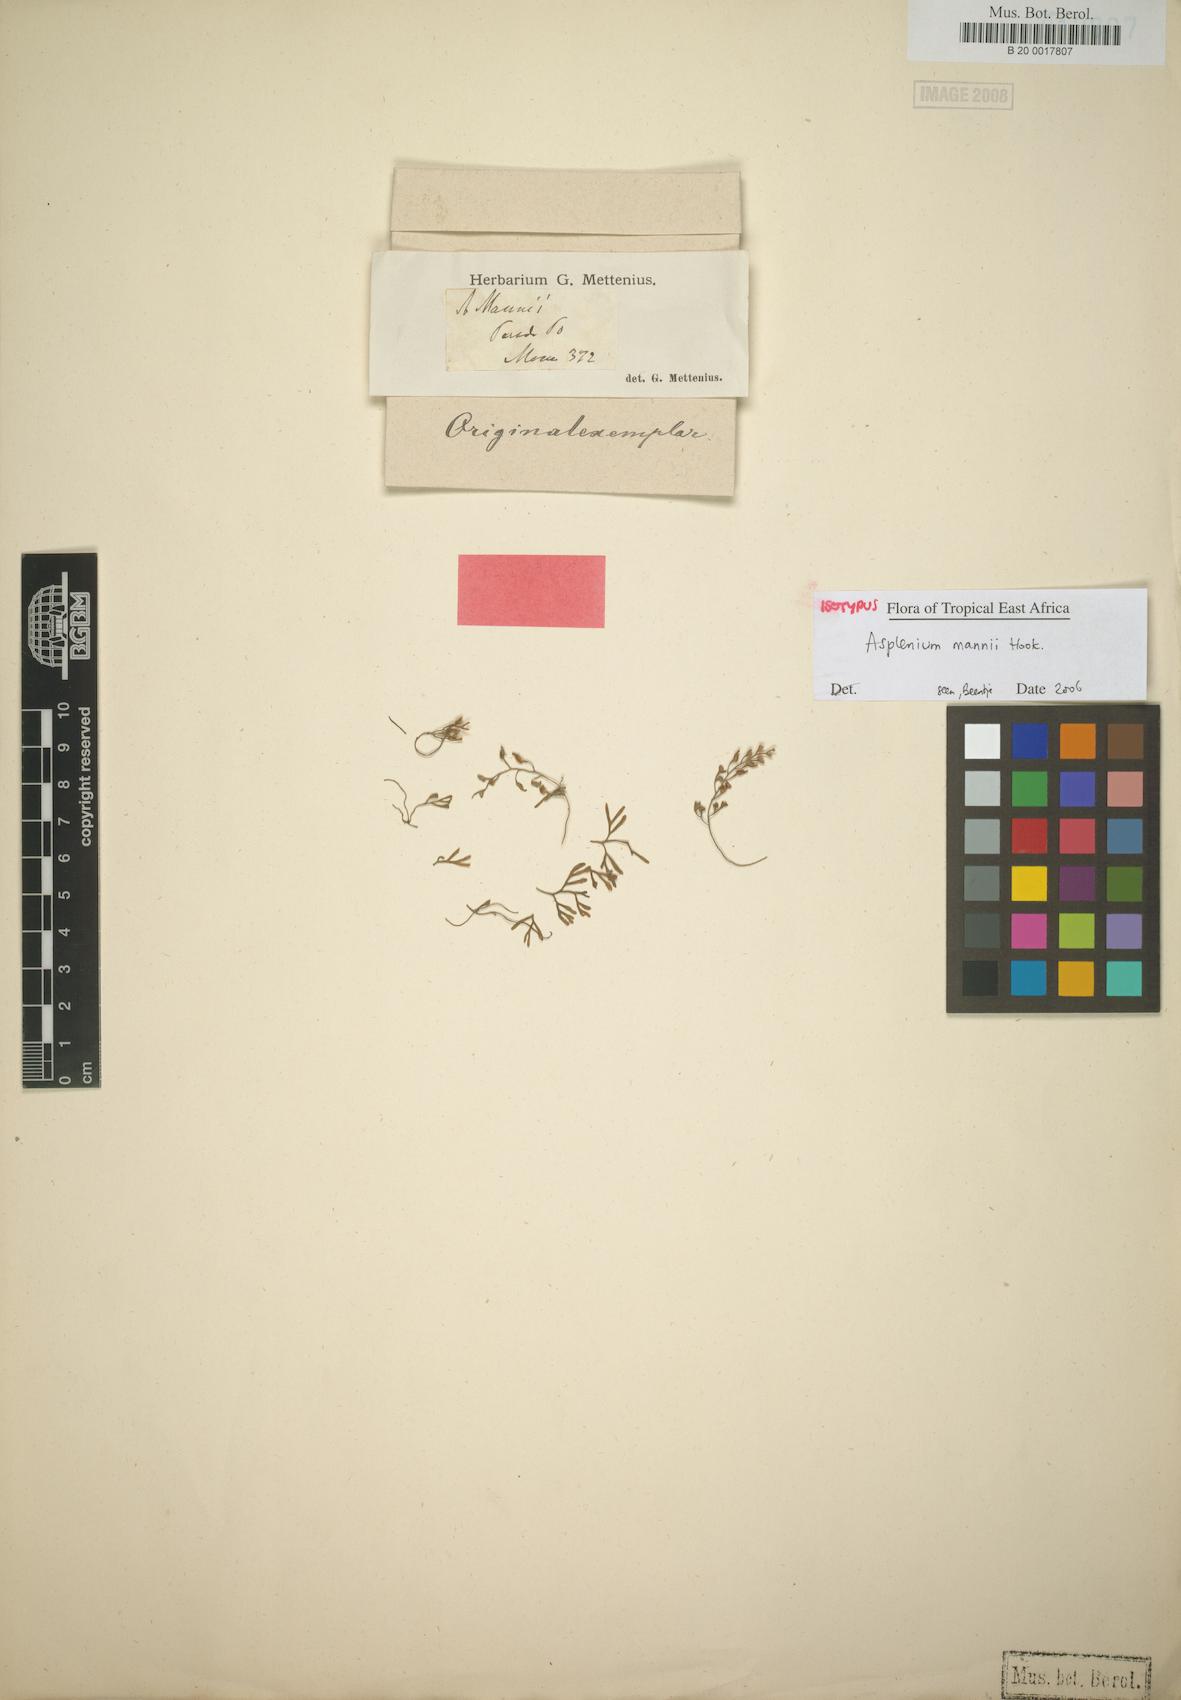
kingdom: Plantae
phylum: Tracheophyta
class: Polypodiopsida
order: Polypodiales
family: Aspleniaceae
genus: Asplenium
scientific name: Asplenium mannii
